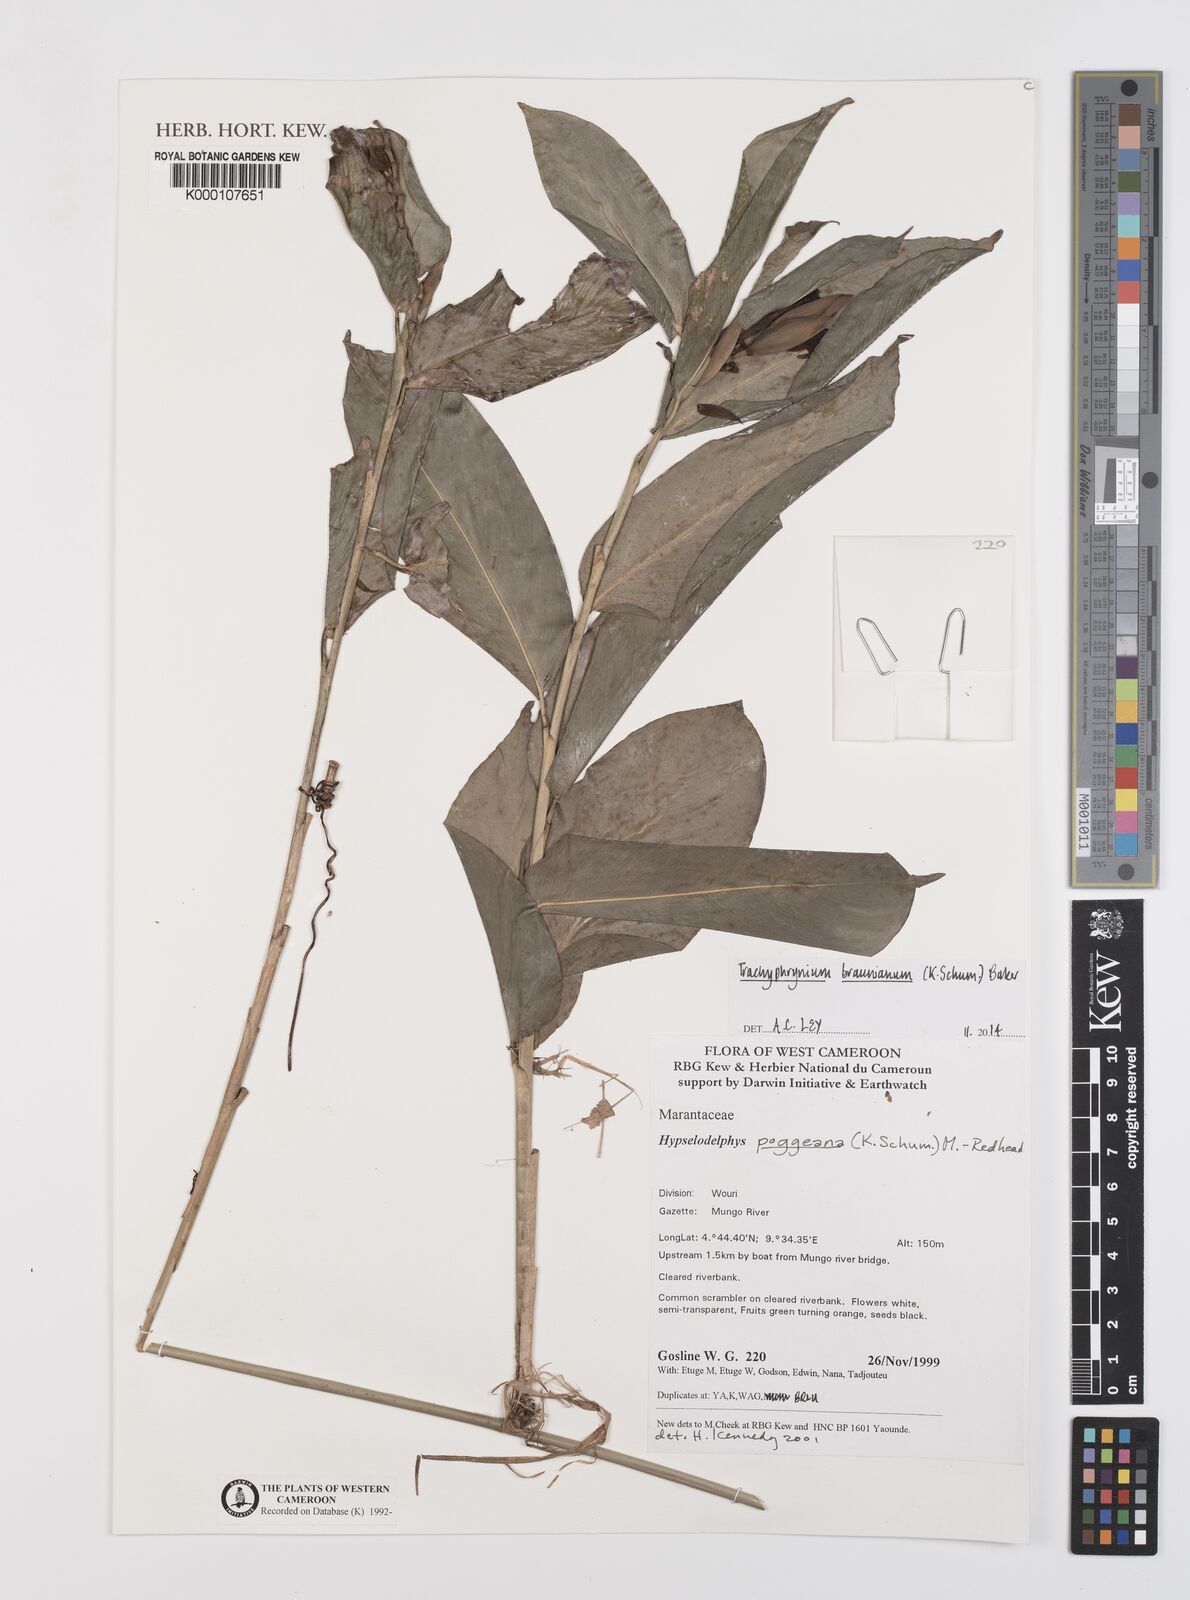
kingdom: Plantae
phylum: Tracheophyta
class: Liliopsida
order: Zingiberales
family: Marantaceae
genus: Hypselodelphys
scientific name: Hypselodelphys poggeana
